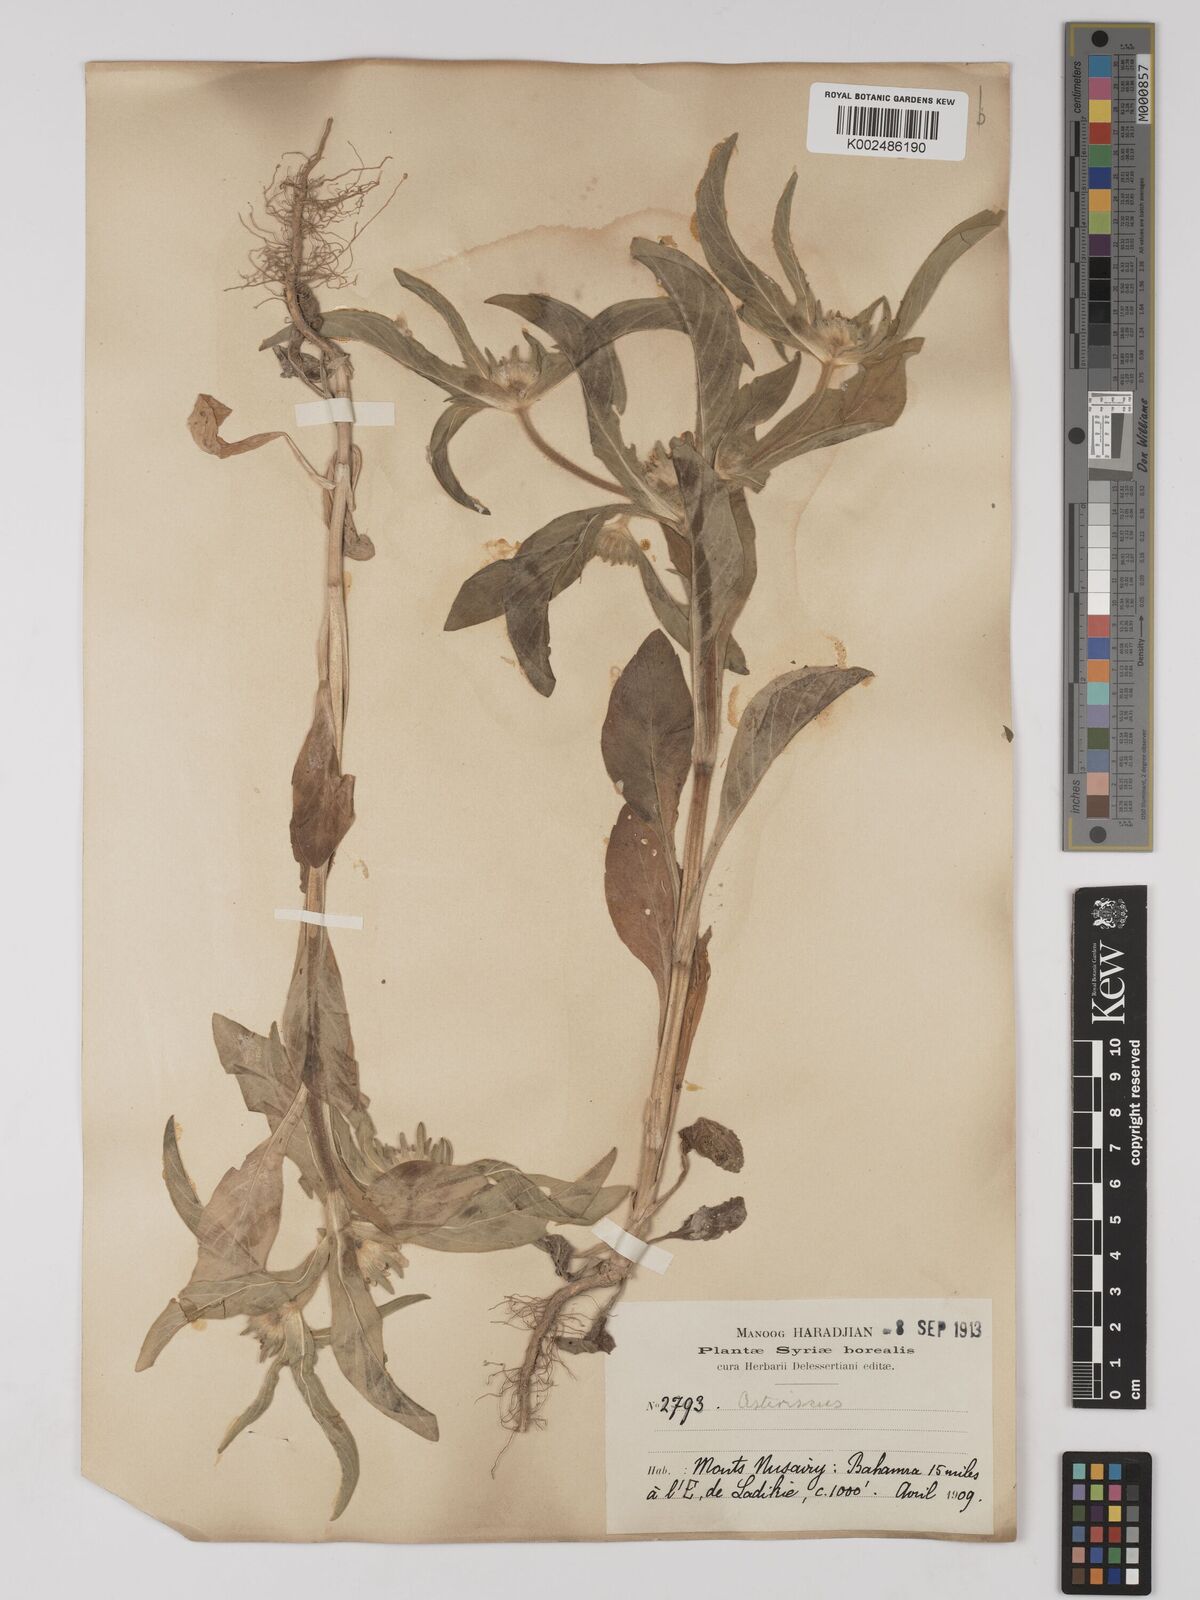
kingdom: Plantae
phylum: Tracheophyta
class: Magnoliopsida
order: Asterales
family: Asteraceae
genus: Pallenis
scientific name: Pallenis spinosa
